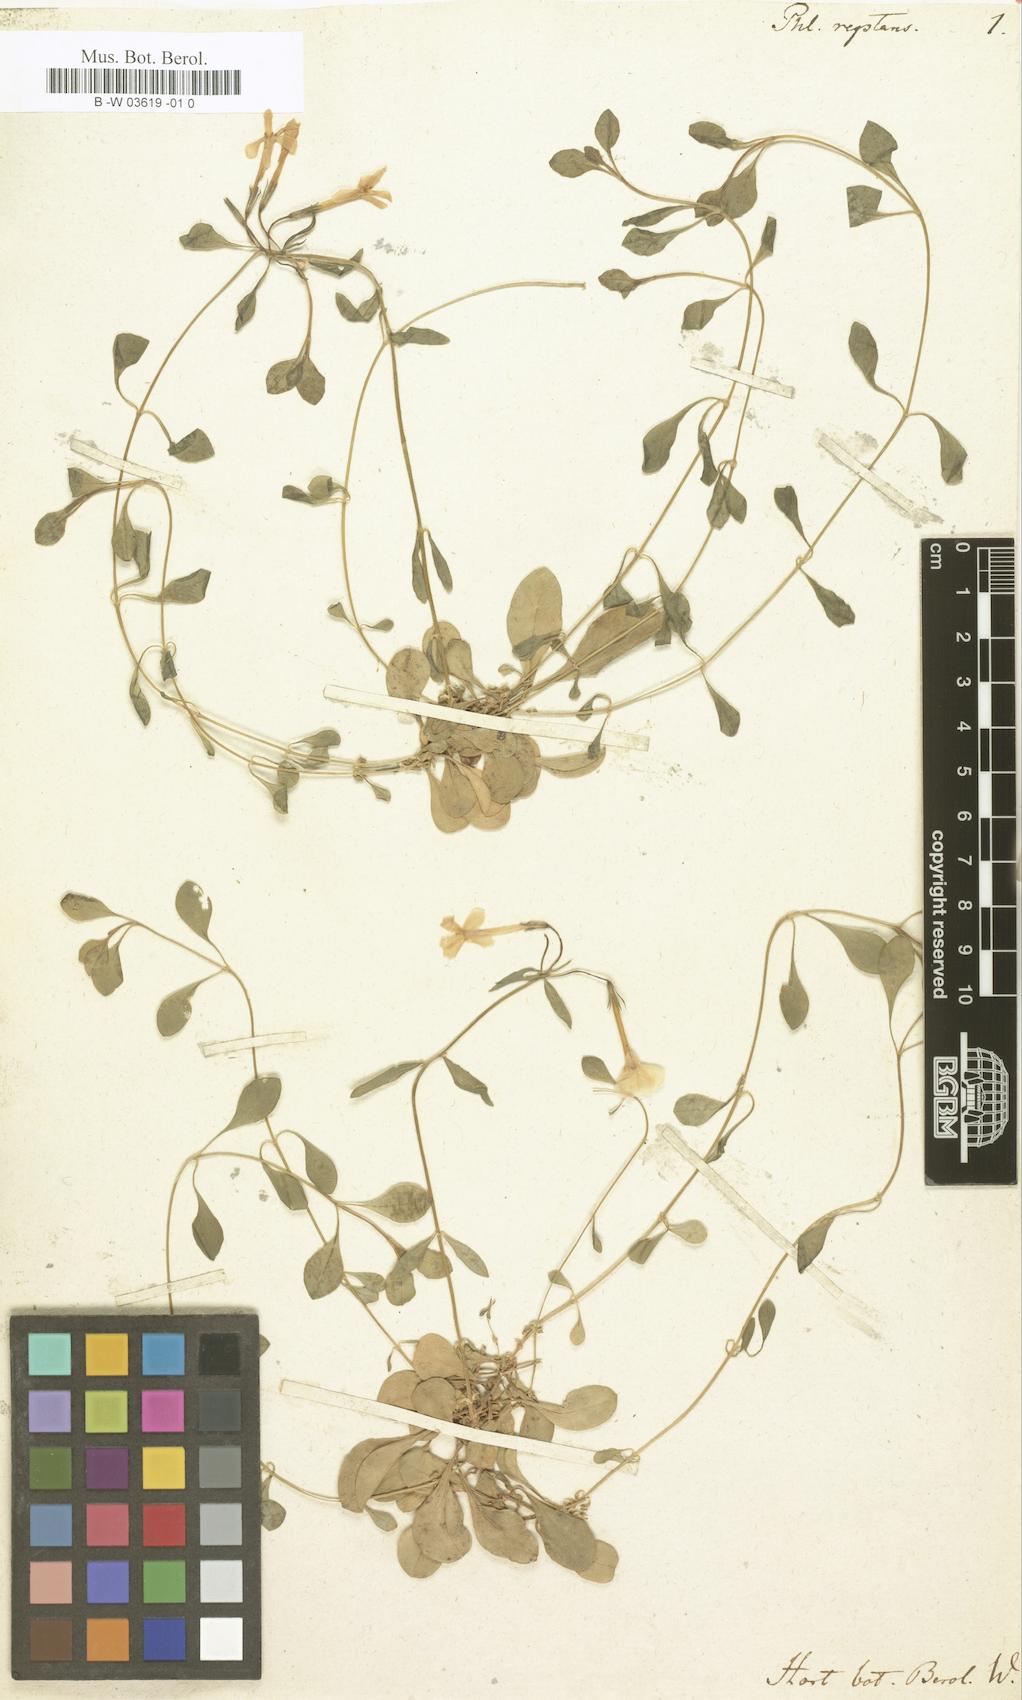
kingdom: Plantae
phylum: Tracheophyta
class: Magnoliopsida
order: Ericales
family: Polemoniaceae
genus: Phlox
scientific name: Phlox stolonifera
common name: Creeping phlox
